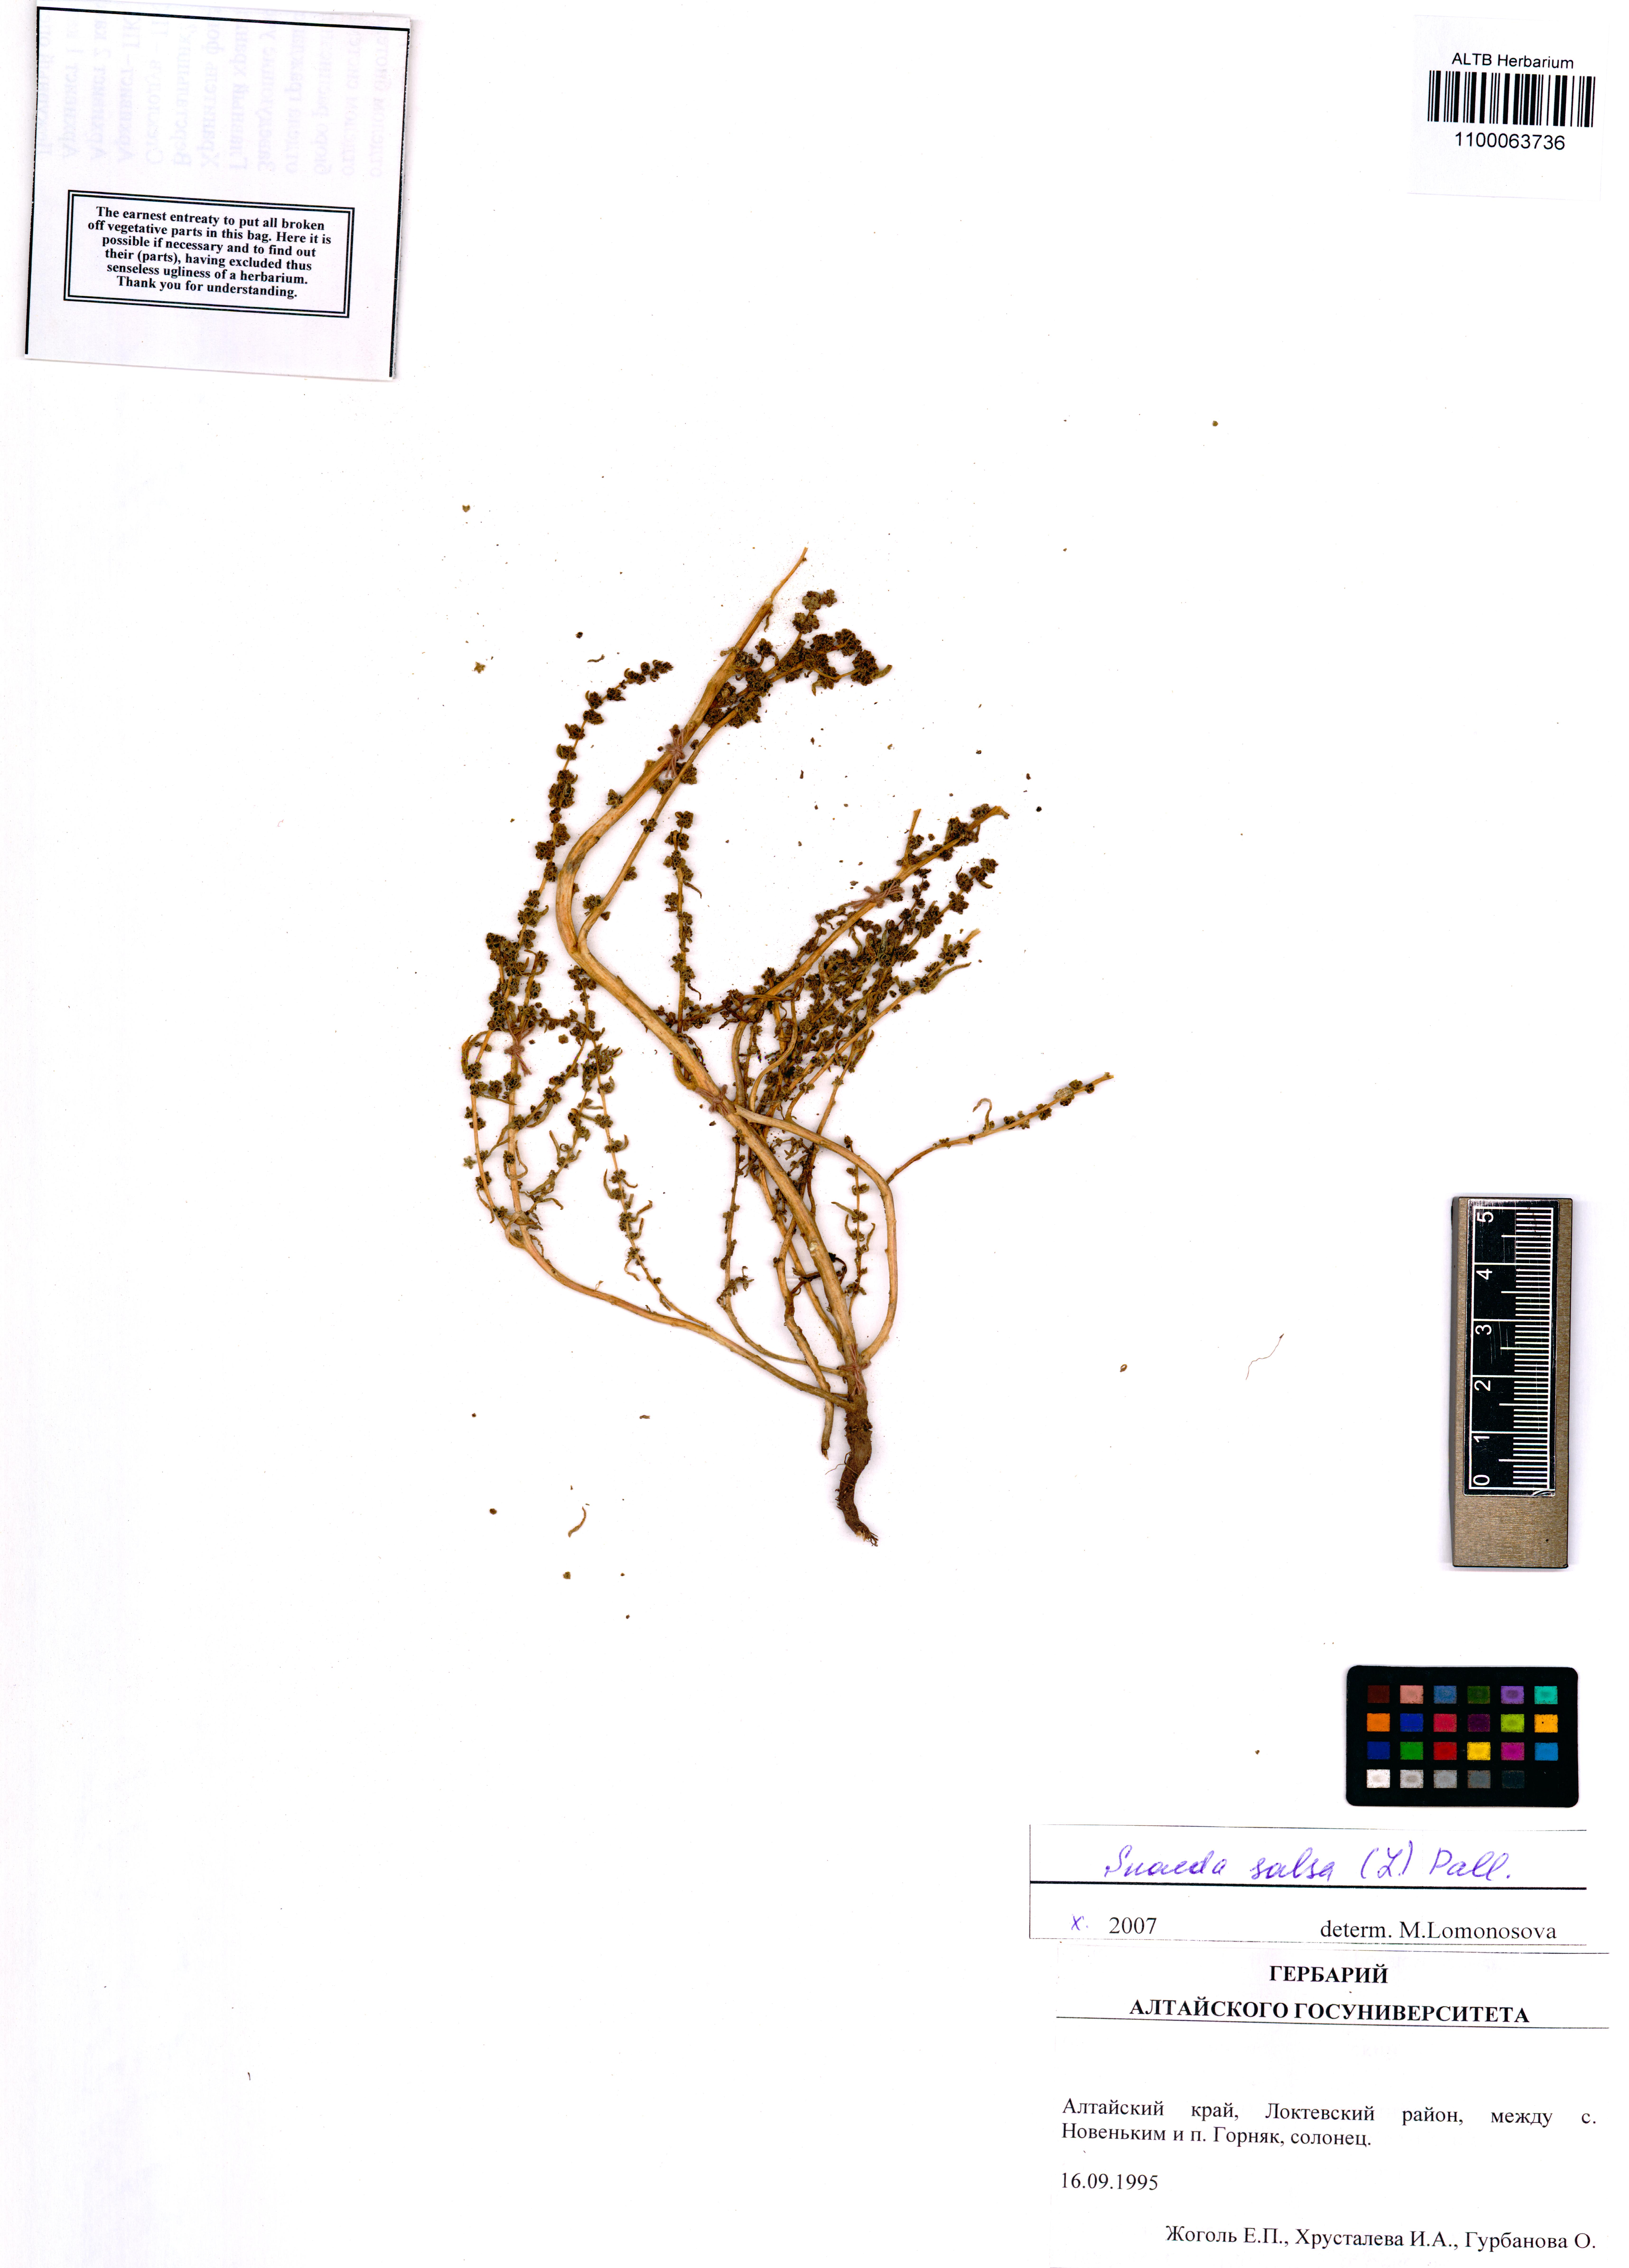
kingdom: Plantae
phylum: Tracheophyta
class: Magnoliopsida
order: Caryophyllales
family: Amaranthaceae
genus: Suaeda
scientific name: Suaeda salsa
